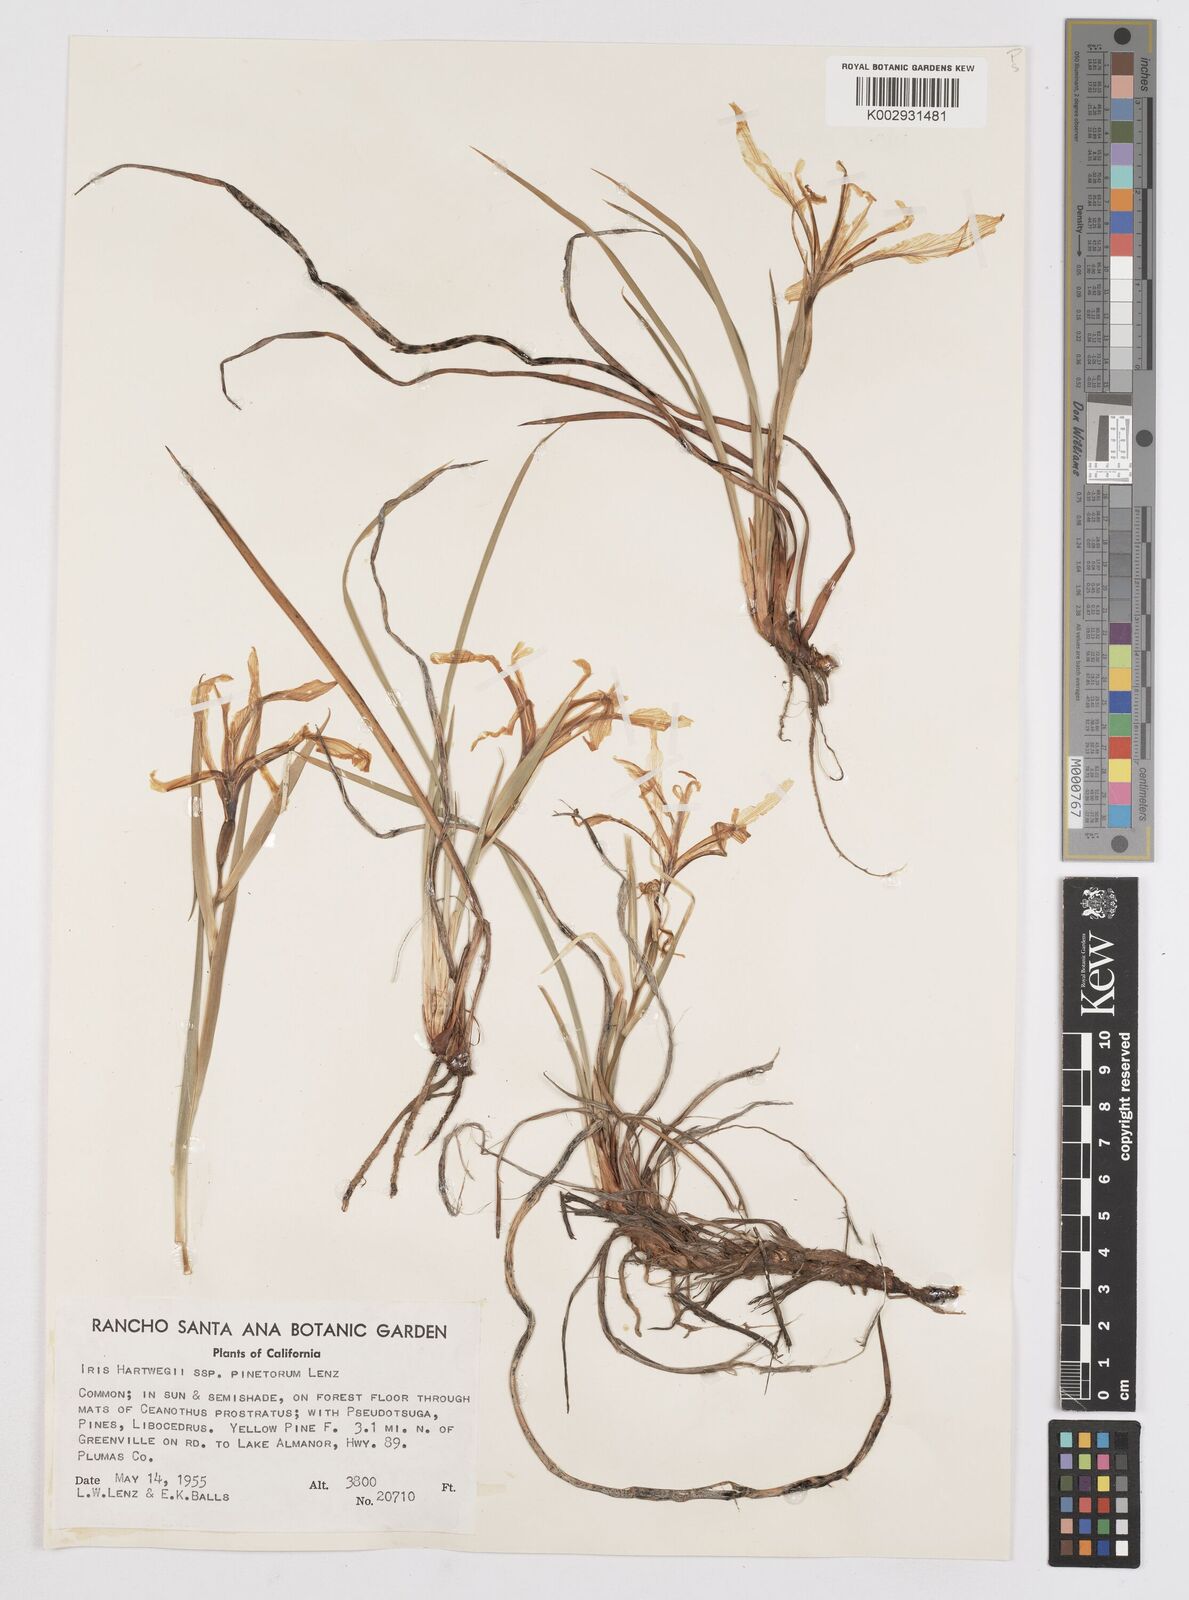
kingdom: Plantae
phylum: Tracheophyta
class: Liliopsida
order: Asparagales
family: Iridaceae
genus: Iris
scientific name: Iris hartwegii
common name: Sierra iris
